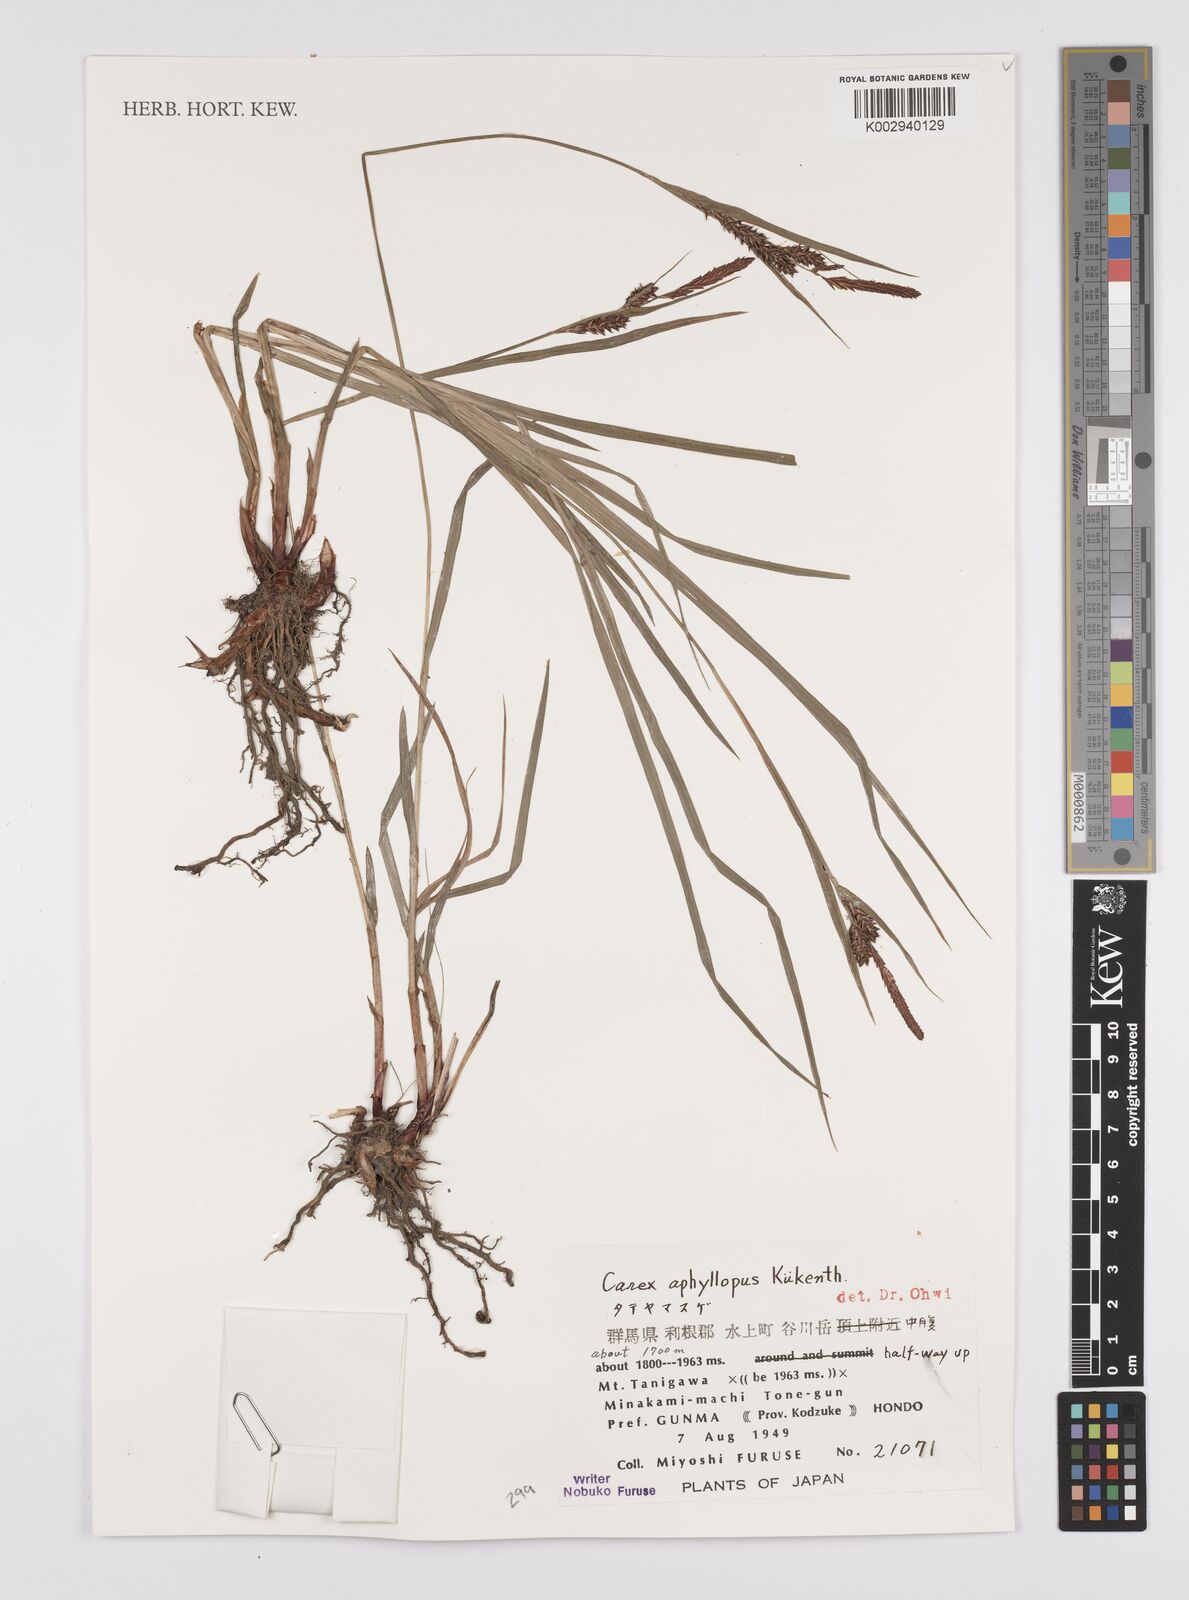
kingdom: Plantae
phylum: Tracheophyta
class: Liliopsida
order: Poales
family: Cyperaceae
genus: Carex
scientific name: Carex aphyllopus
